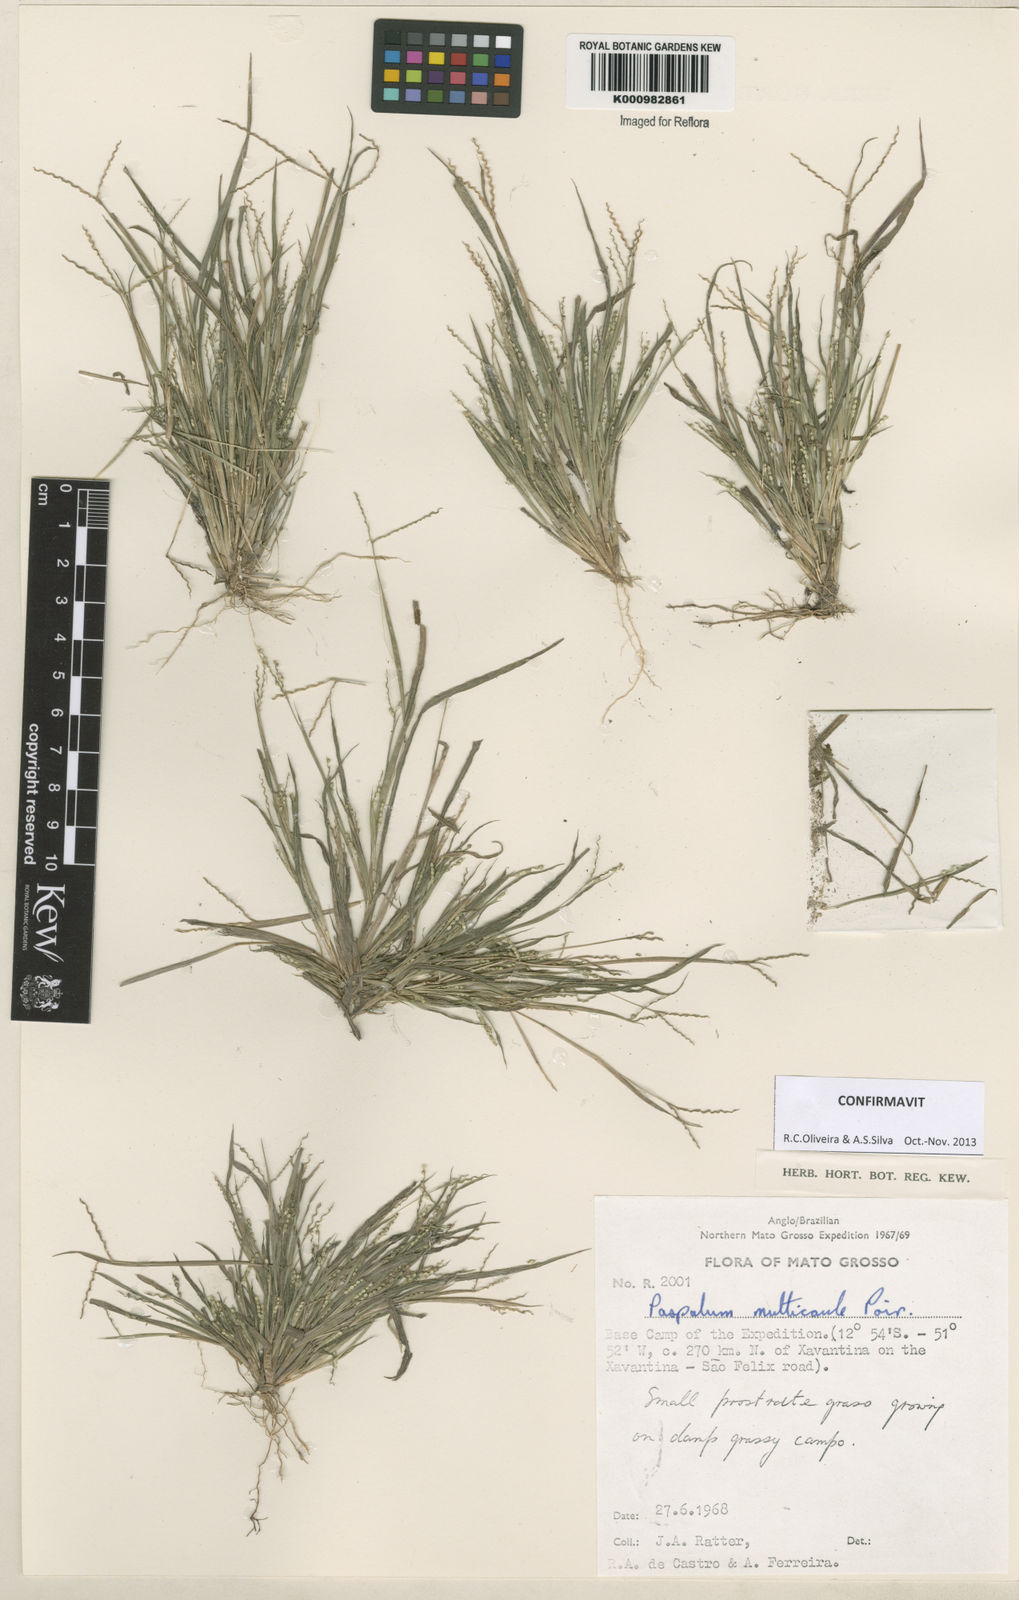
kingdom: Plantae
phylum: Tracheophyta
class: Liliopsida
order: Poales
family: Poaceae
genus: Paspalum
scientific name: Paspalum multicaule
